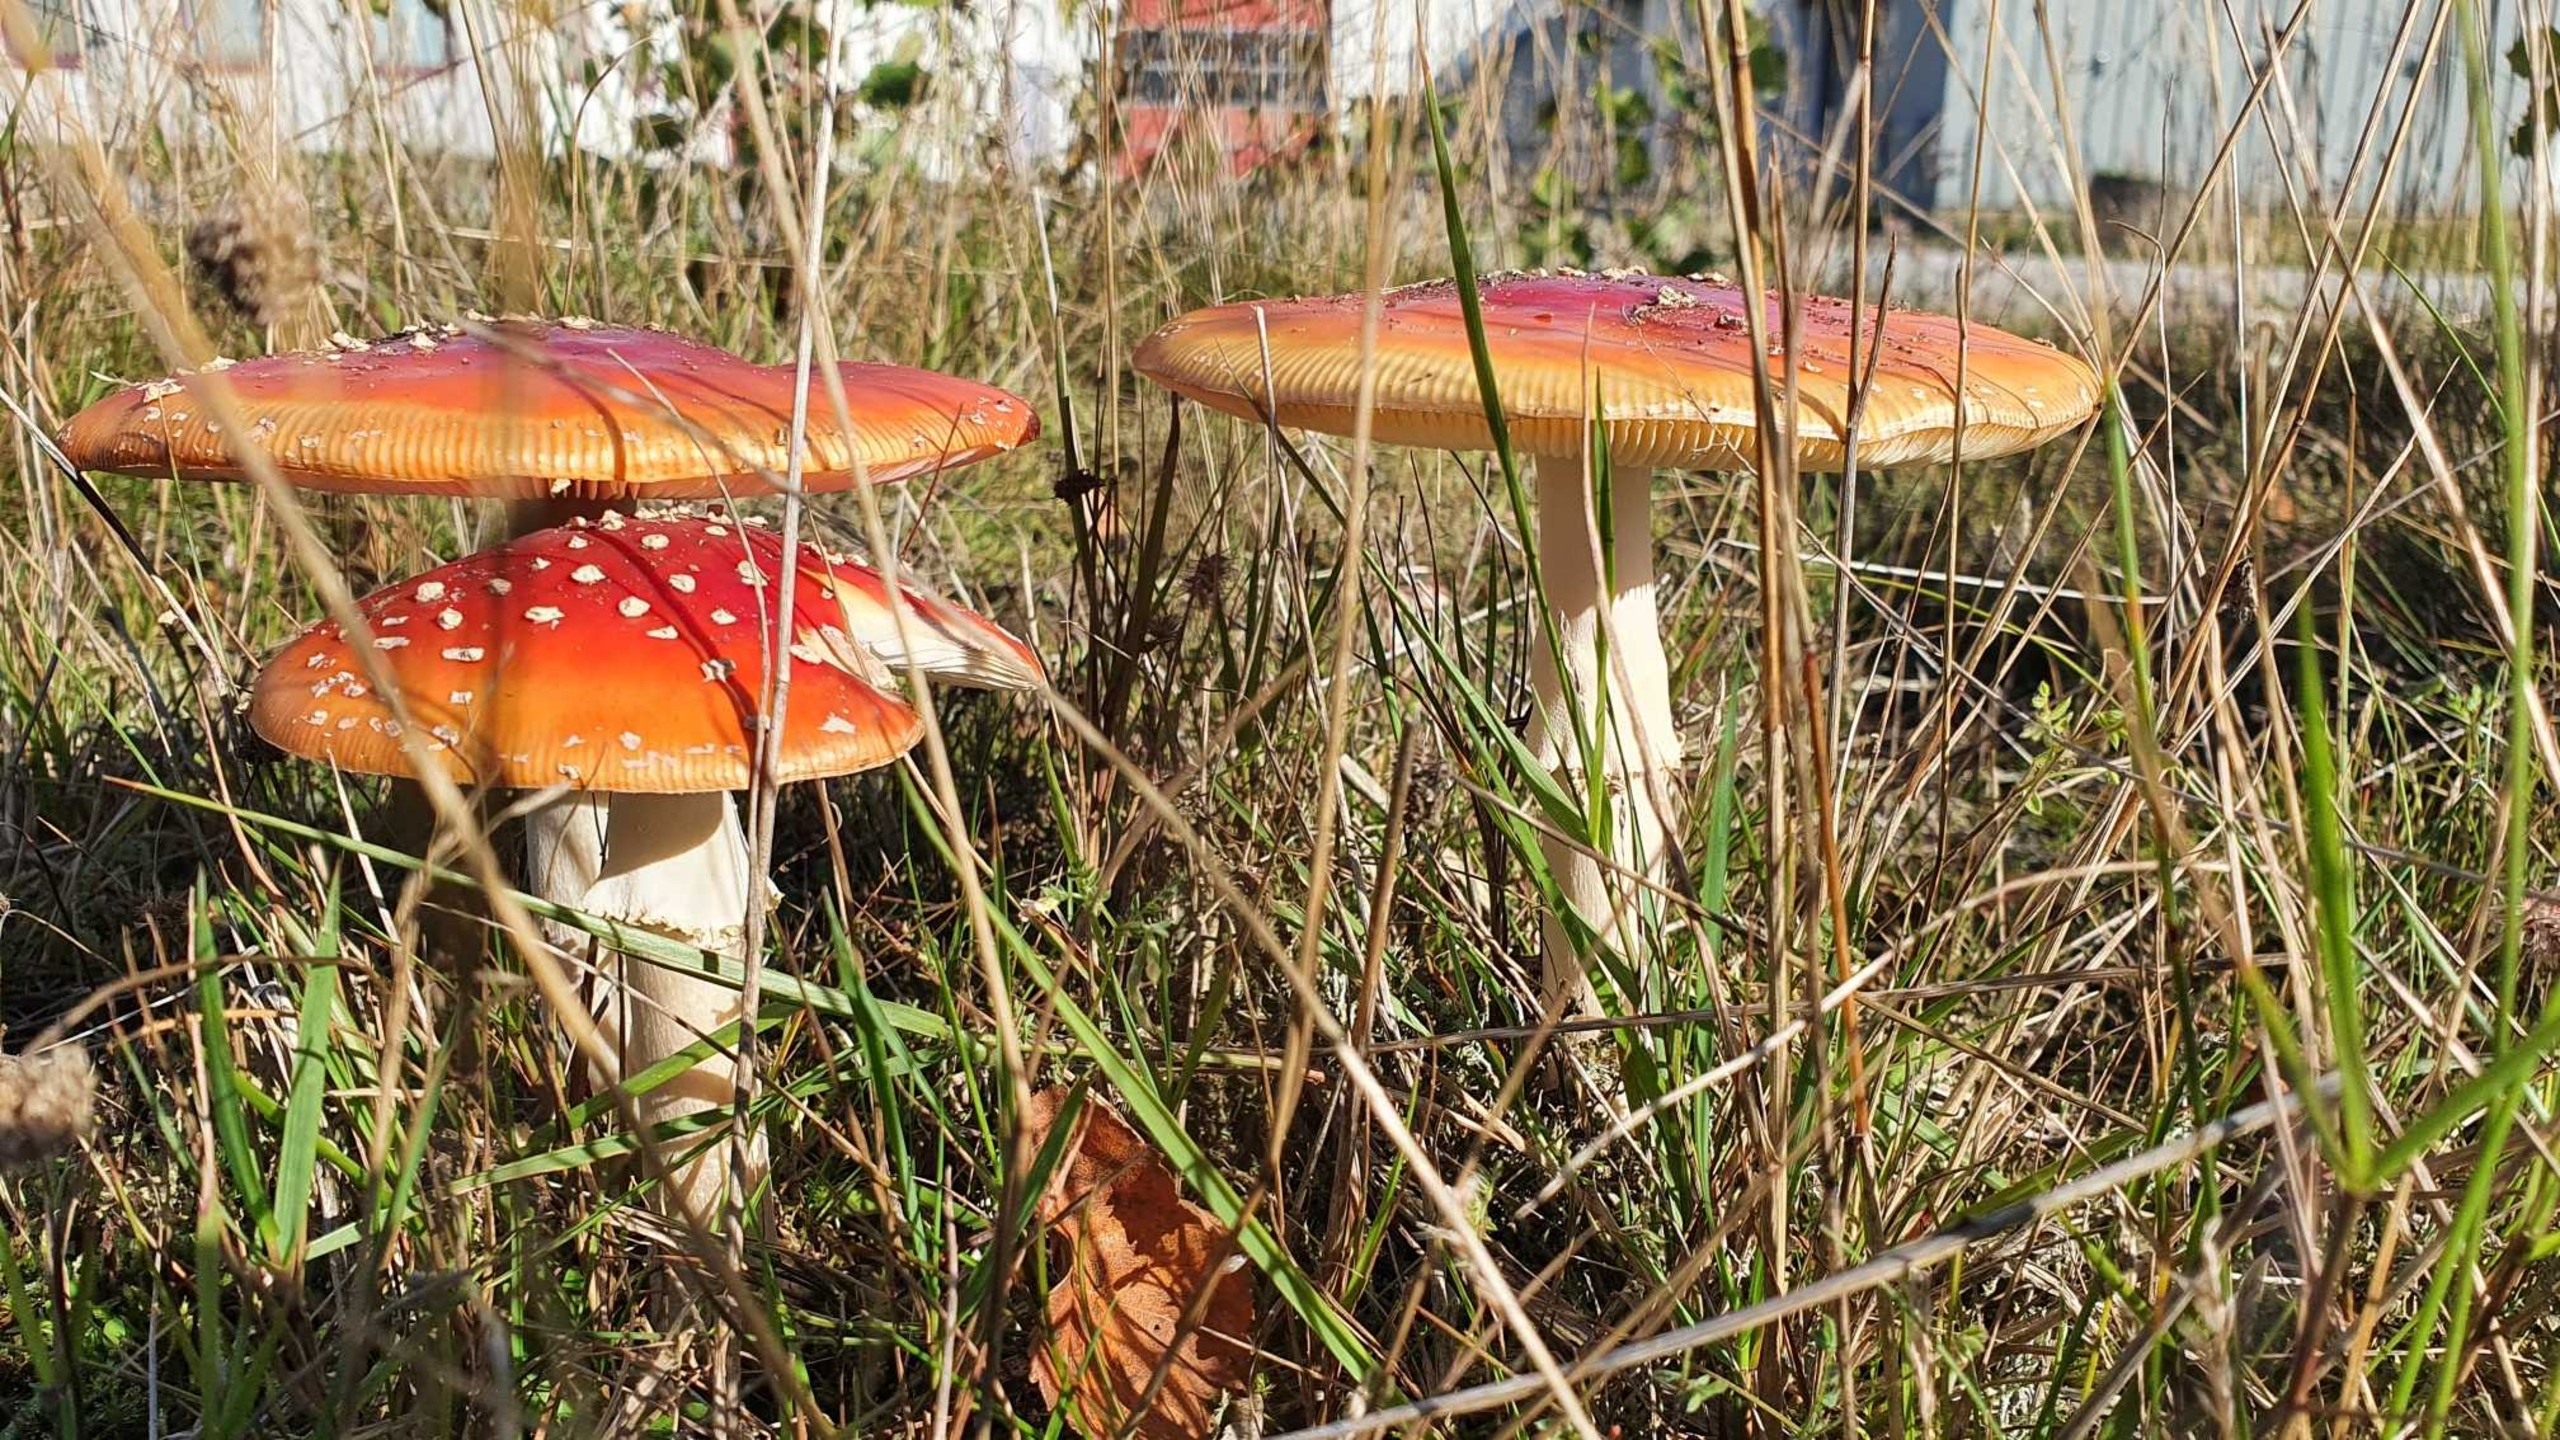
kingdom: Fungi
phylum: Basidiomycota
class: Agaricomycetes
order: Agaricales
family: Amanitaceae
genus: Amanita
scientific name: Amanita muscaria
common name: Rød fluesvamp
